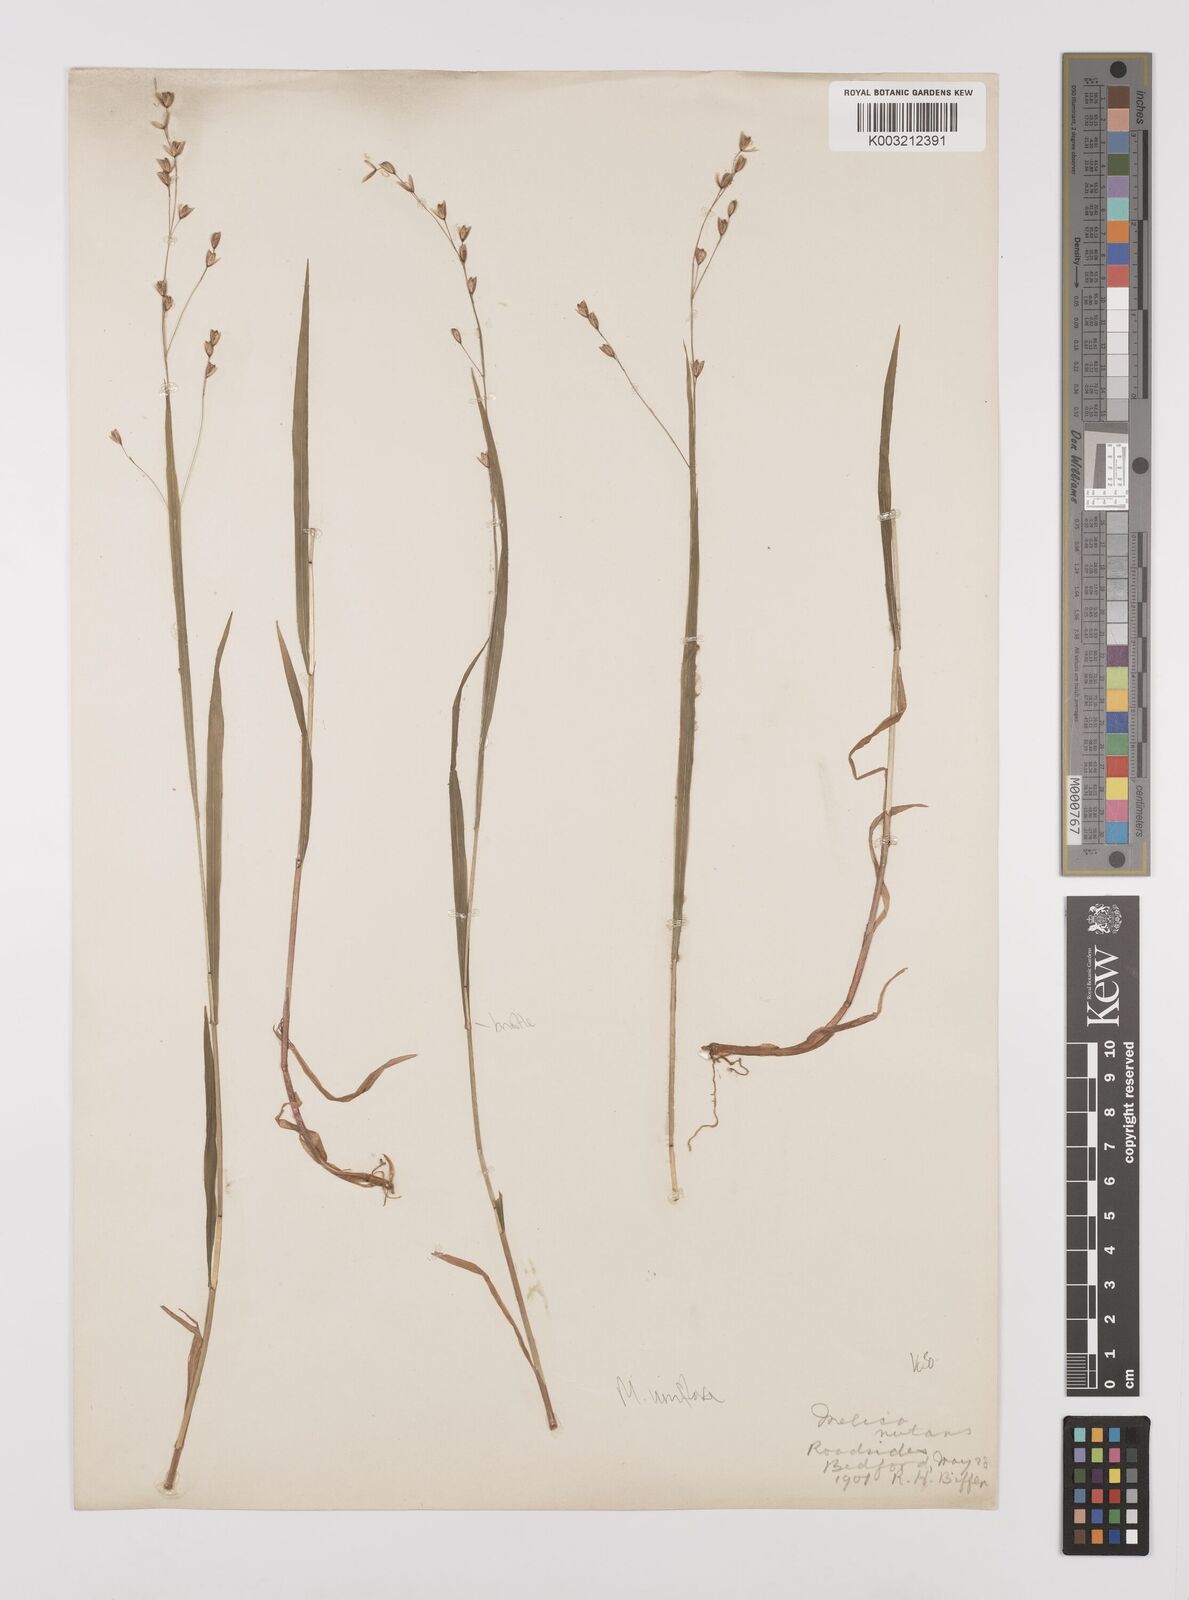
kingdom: Plantae
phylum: Tracheophyta
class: Liliopsida
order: Poales
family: Poaceae
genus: Melica
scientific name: Melica uniflora
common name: Wood melick
